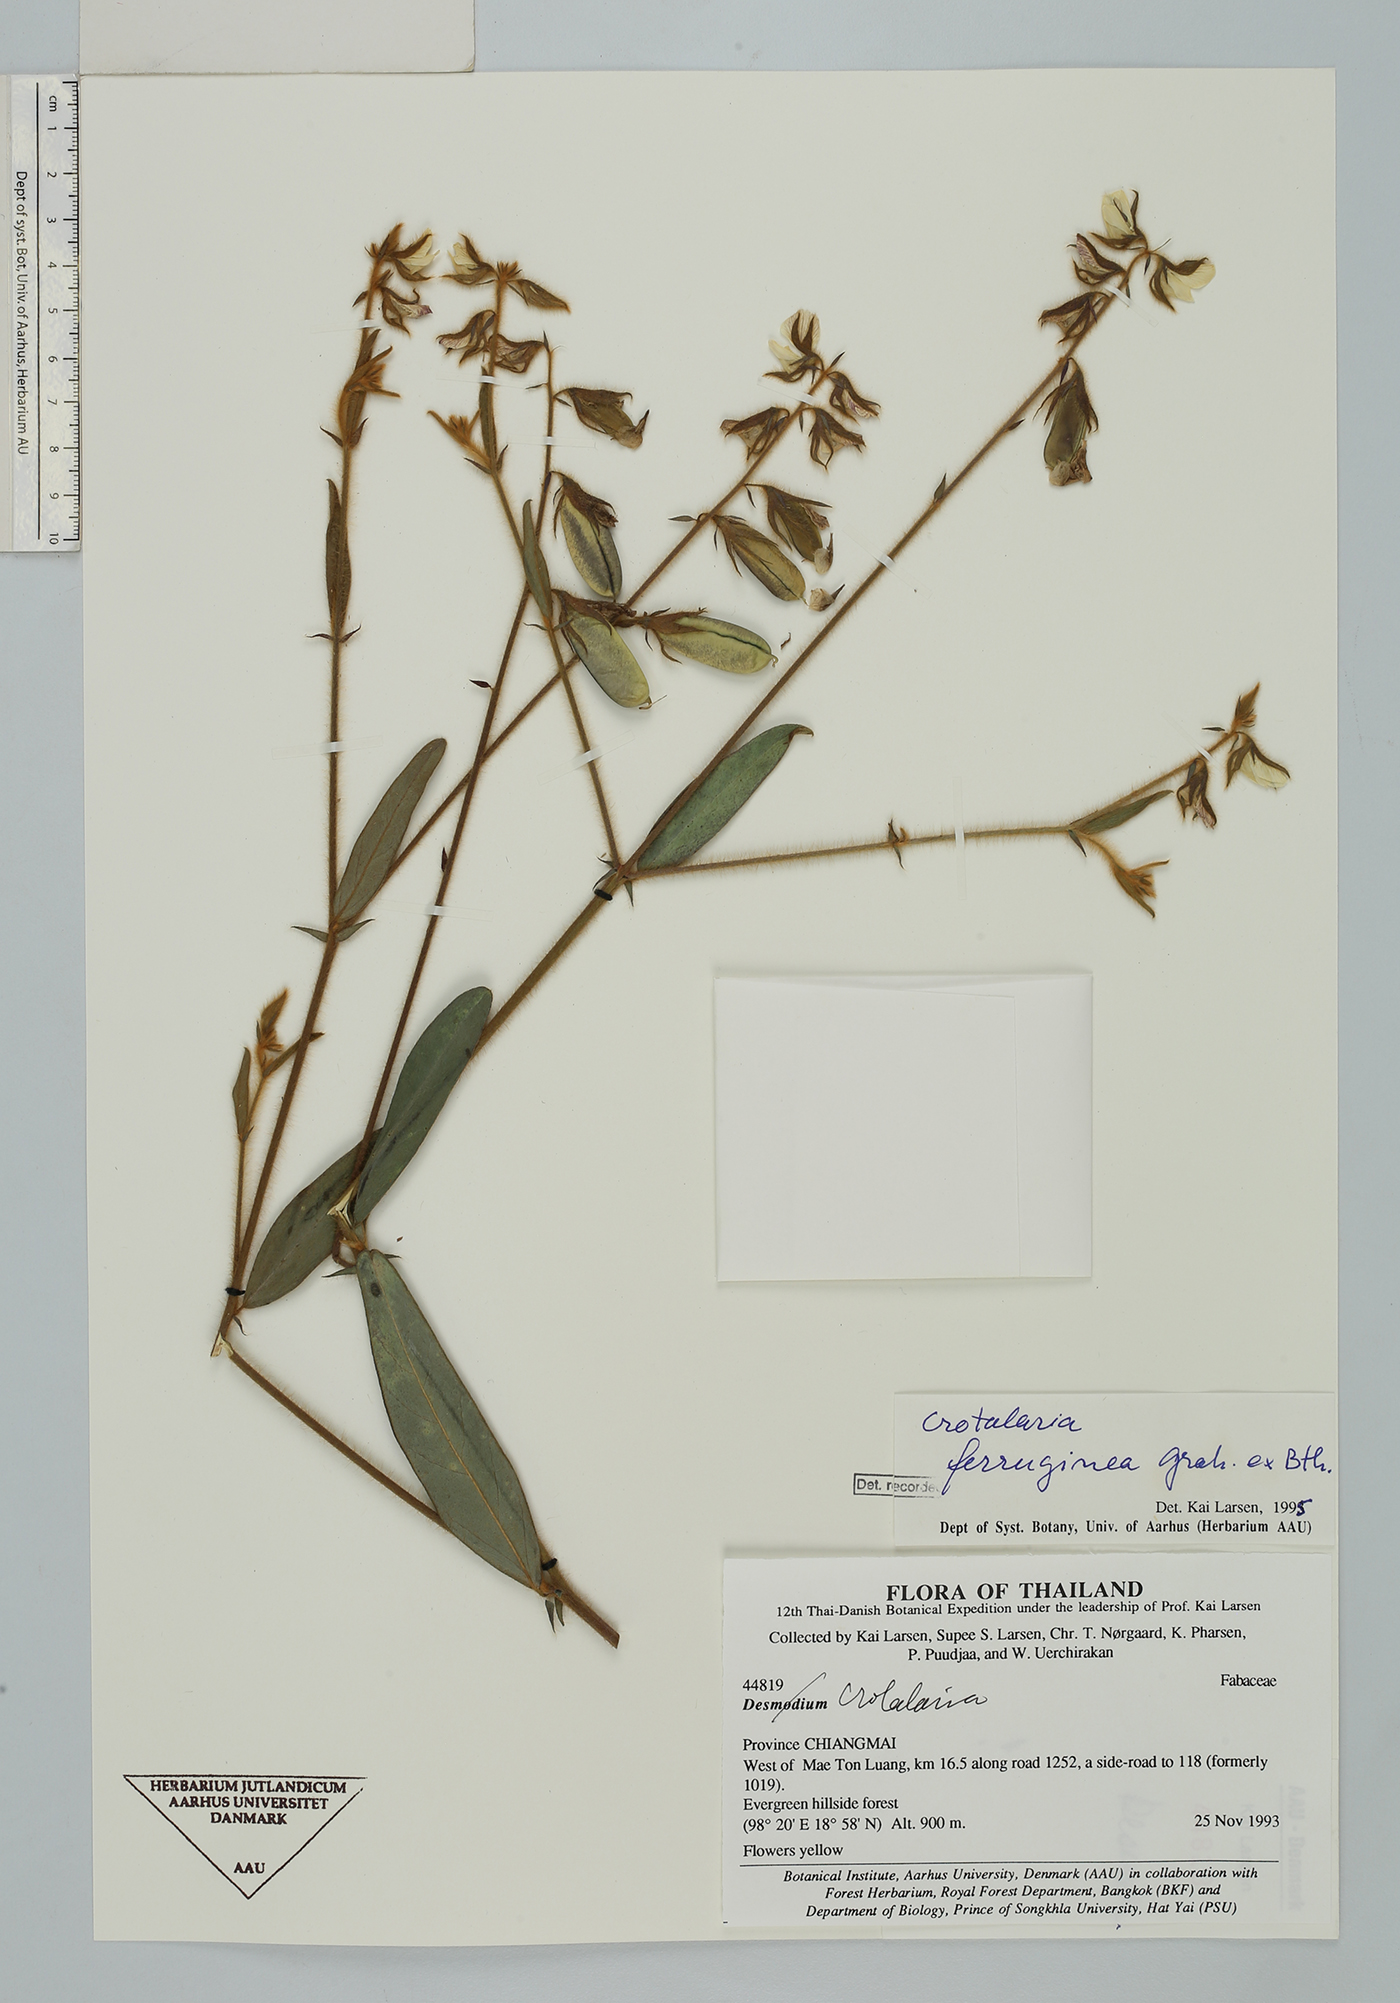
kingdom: Plantae
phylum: Tracheophyta
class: Magnoliopsida
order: Fabales
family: Fabaceae
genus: Crotalaria
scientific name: Crotalaria lejoloba
